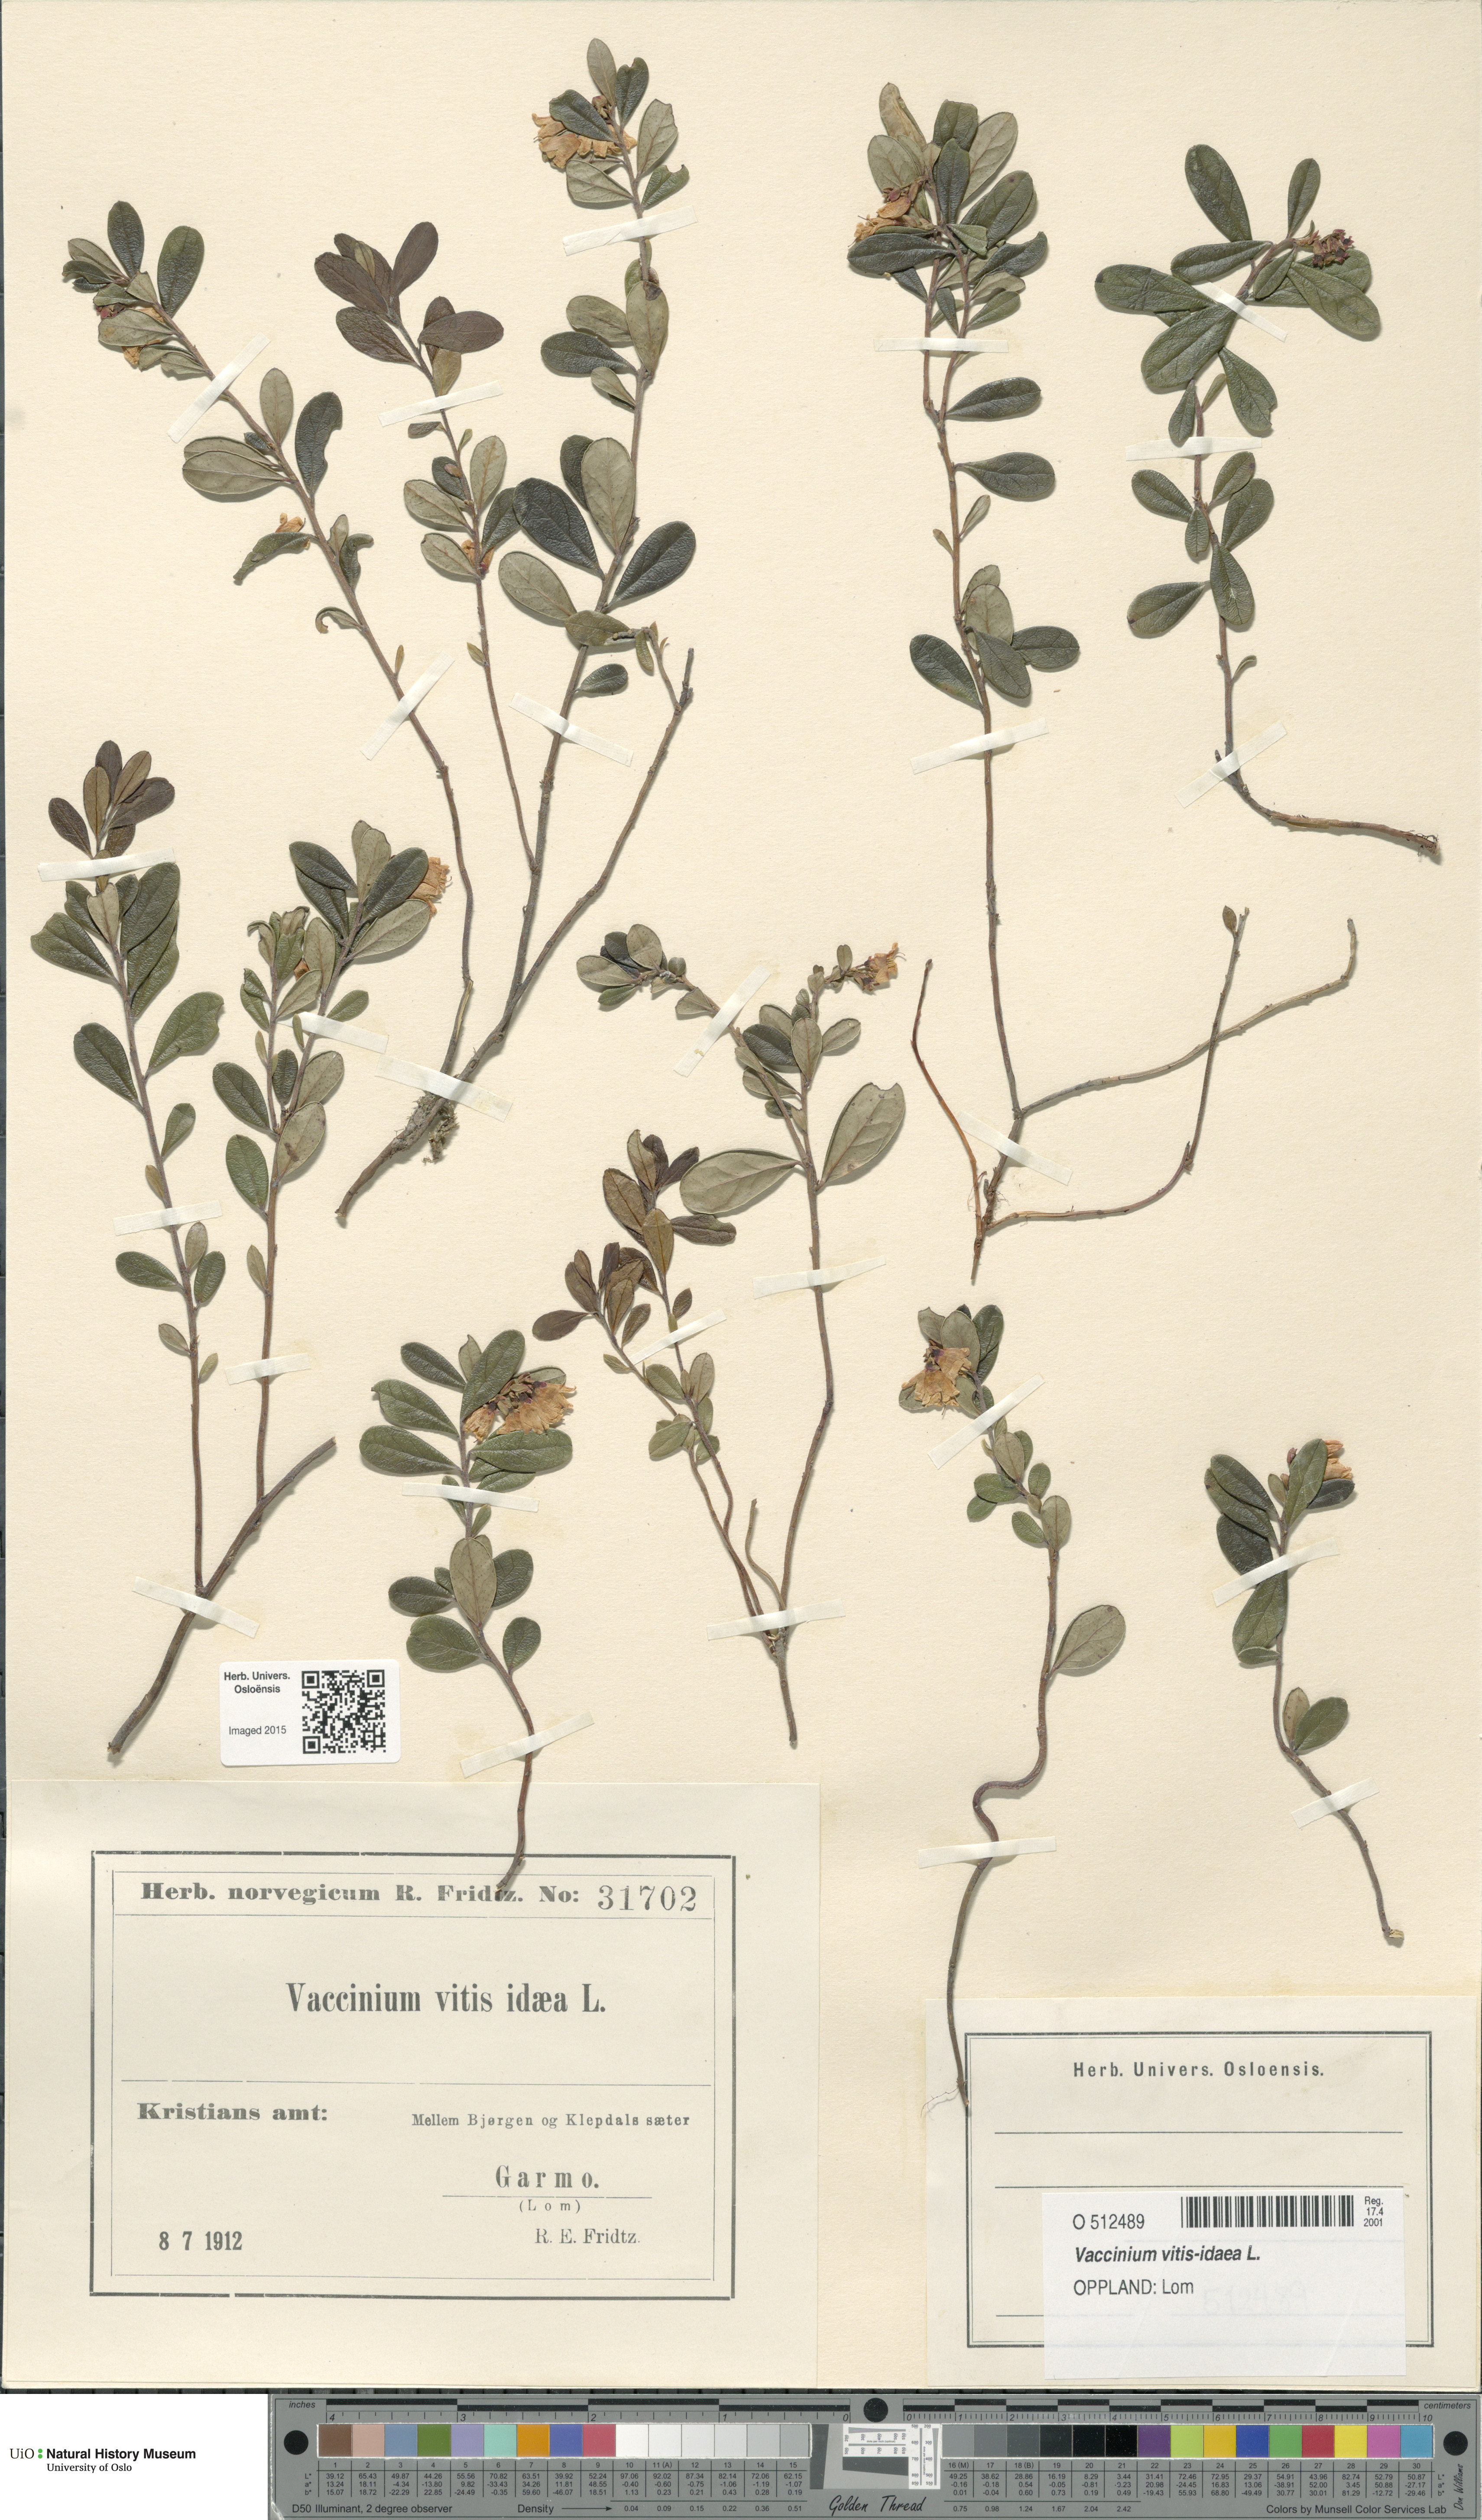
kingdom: Plantae
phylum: Tracheophyta
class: Magnoliopsida
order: Ericales
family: Ericaceae
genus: Vaccinium
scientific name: Vaccinium vitis-idaea
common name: Cowberry
